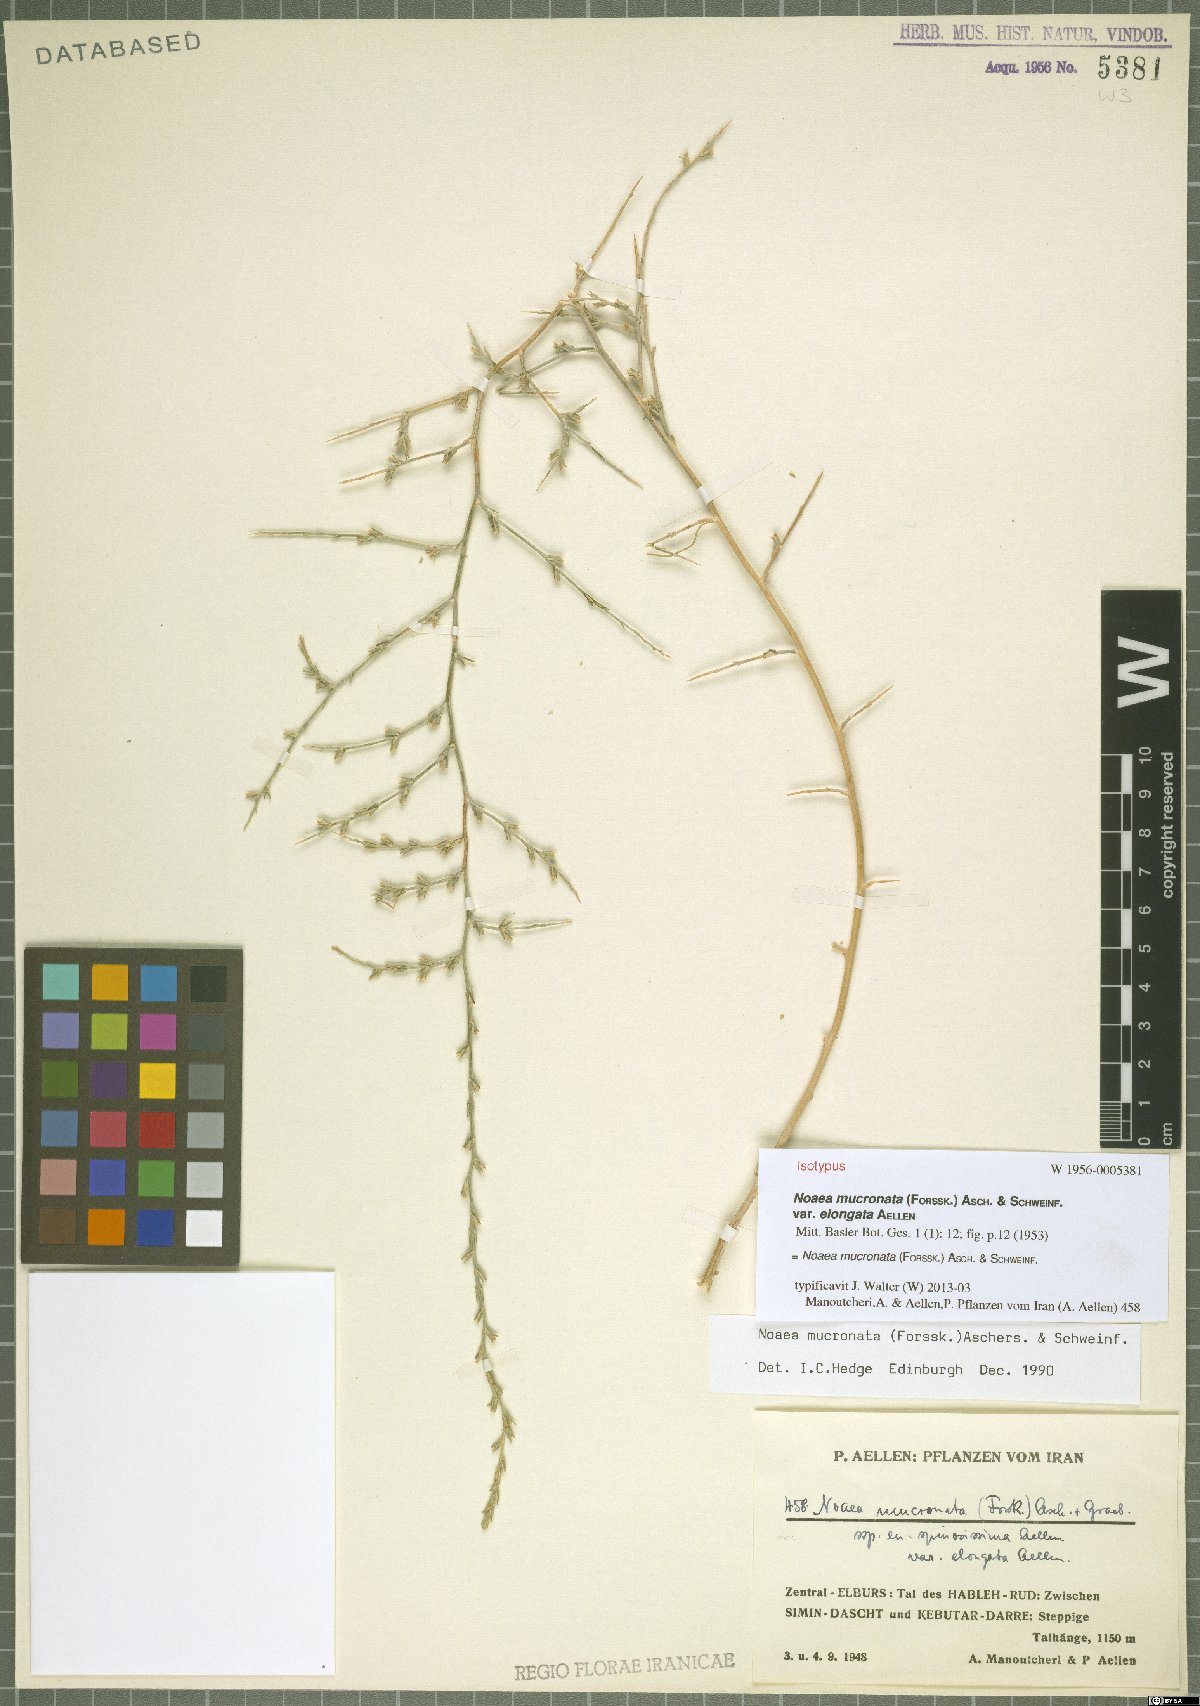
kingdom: Plantae
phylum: Tracheophyta
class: Magnoliopsida
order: Caryophyllales
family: Amaranthaceae
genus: Noaea
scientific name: Noaea mucronata
